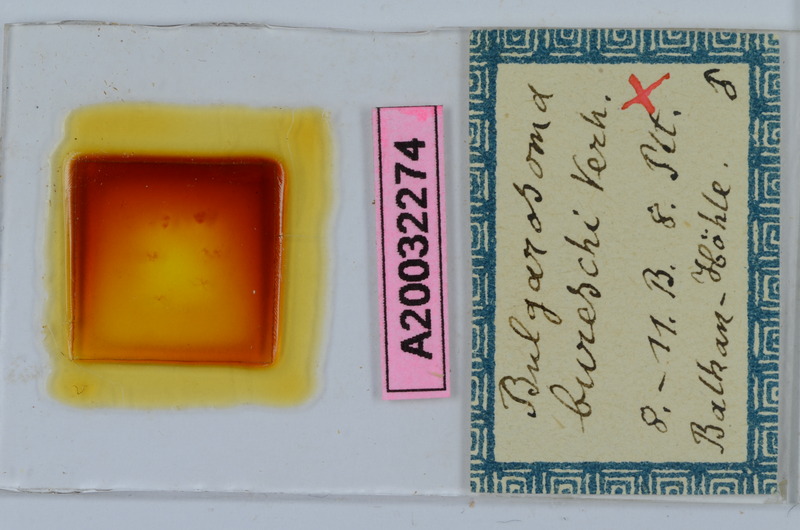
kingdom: Animalia
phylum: Arthropoda
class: Diplopoda
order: Chordeumatida
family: Anthroleucosomatidae
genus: Bulgarosoma
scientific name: Bulgarosoma bureschi
